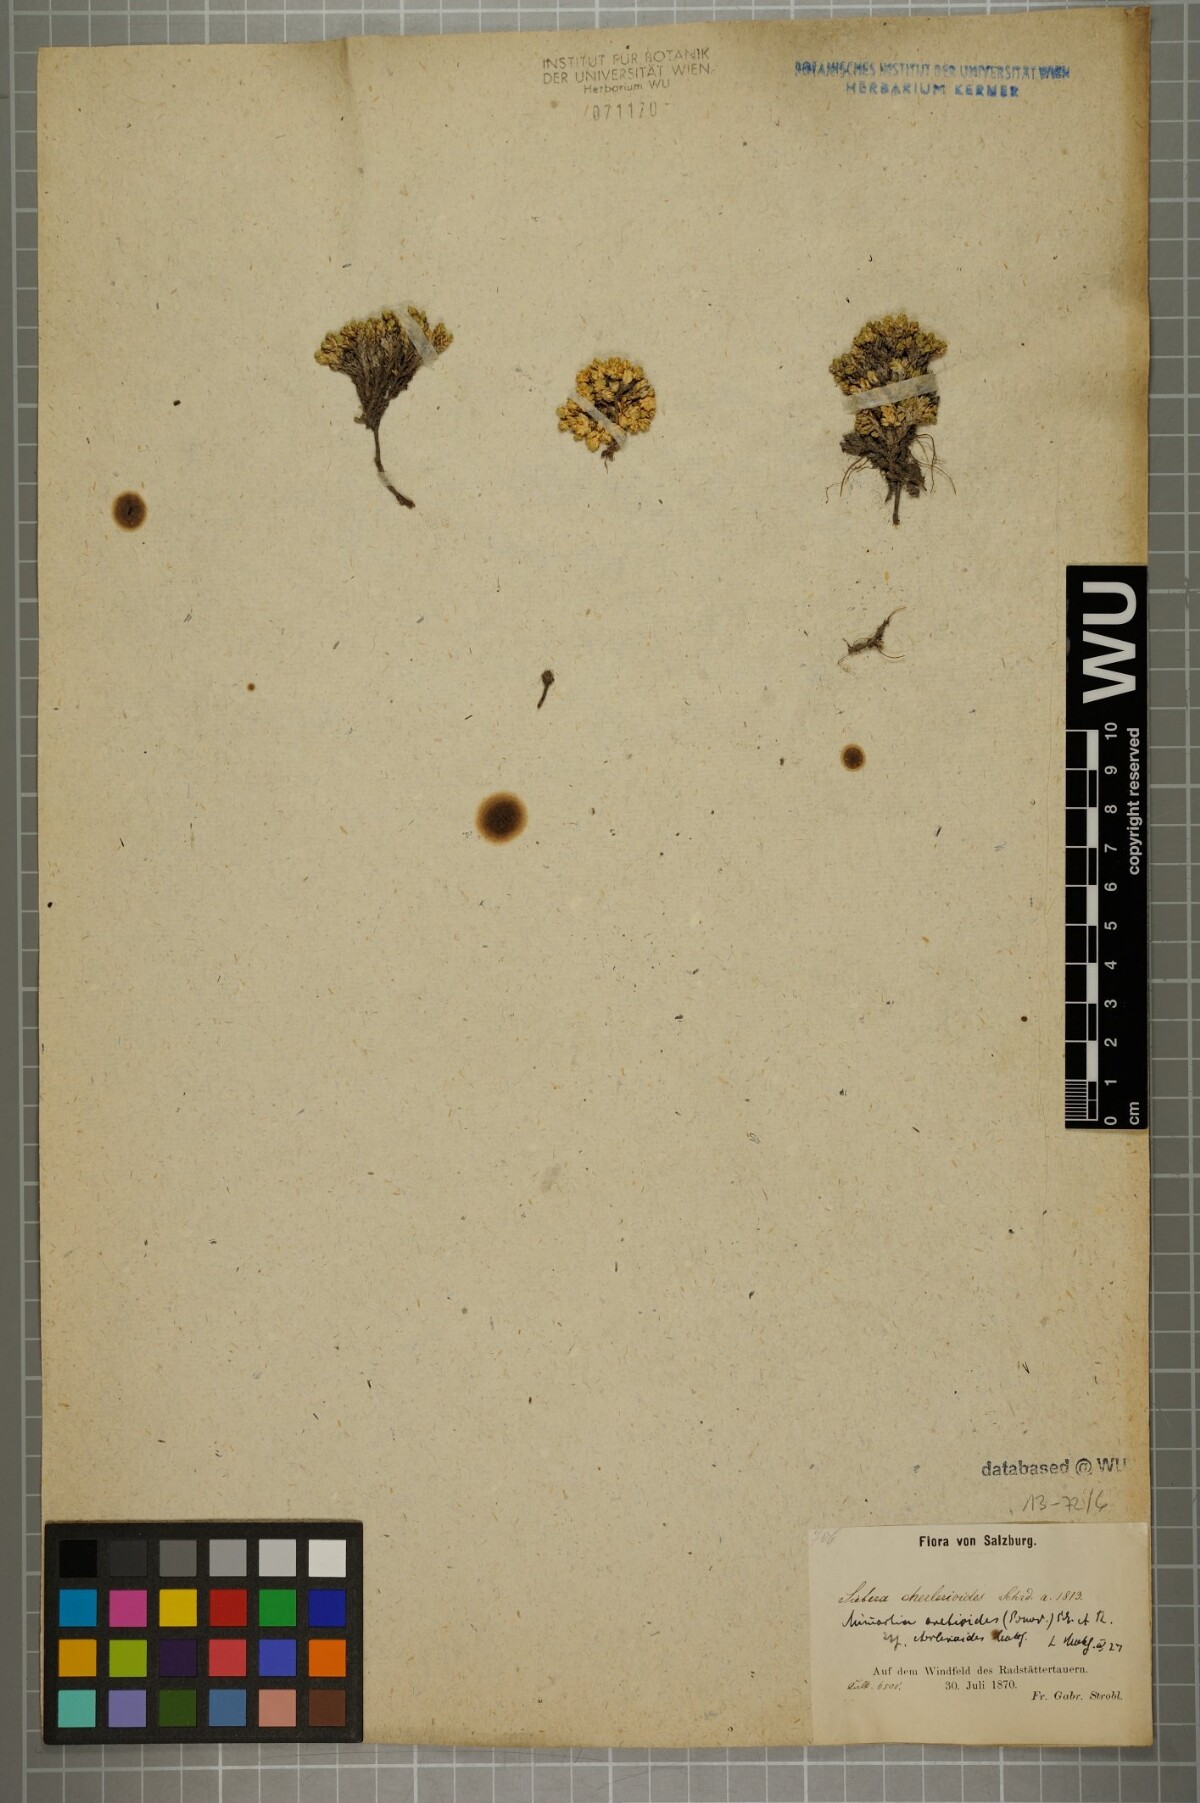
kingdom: Plantae
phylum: Tracheophyta
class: Magnoliopsida
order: Caryophyllales
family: Caryophyllaceae
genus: Facchinia
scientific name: Facchinia cherlerioides
